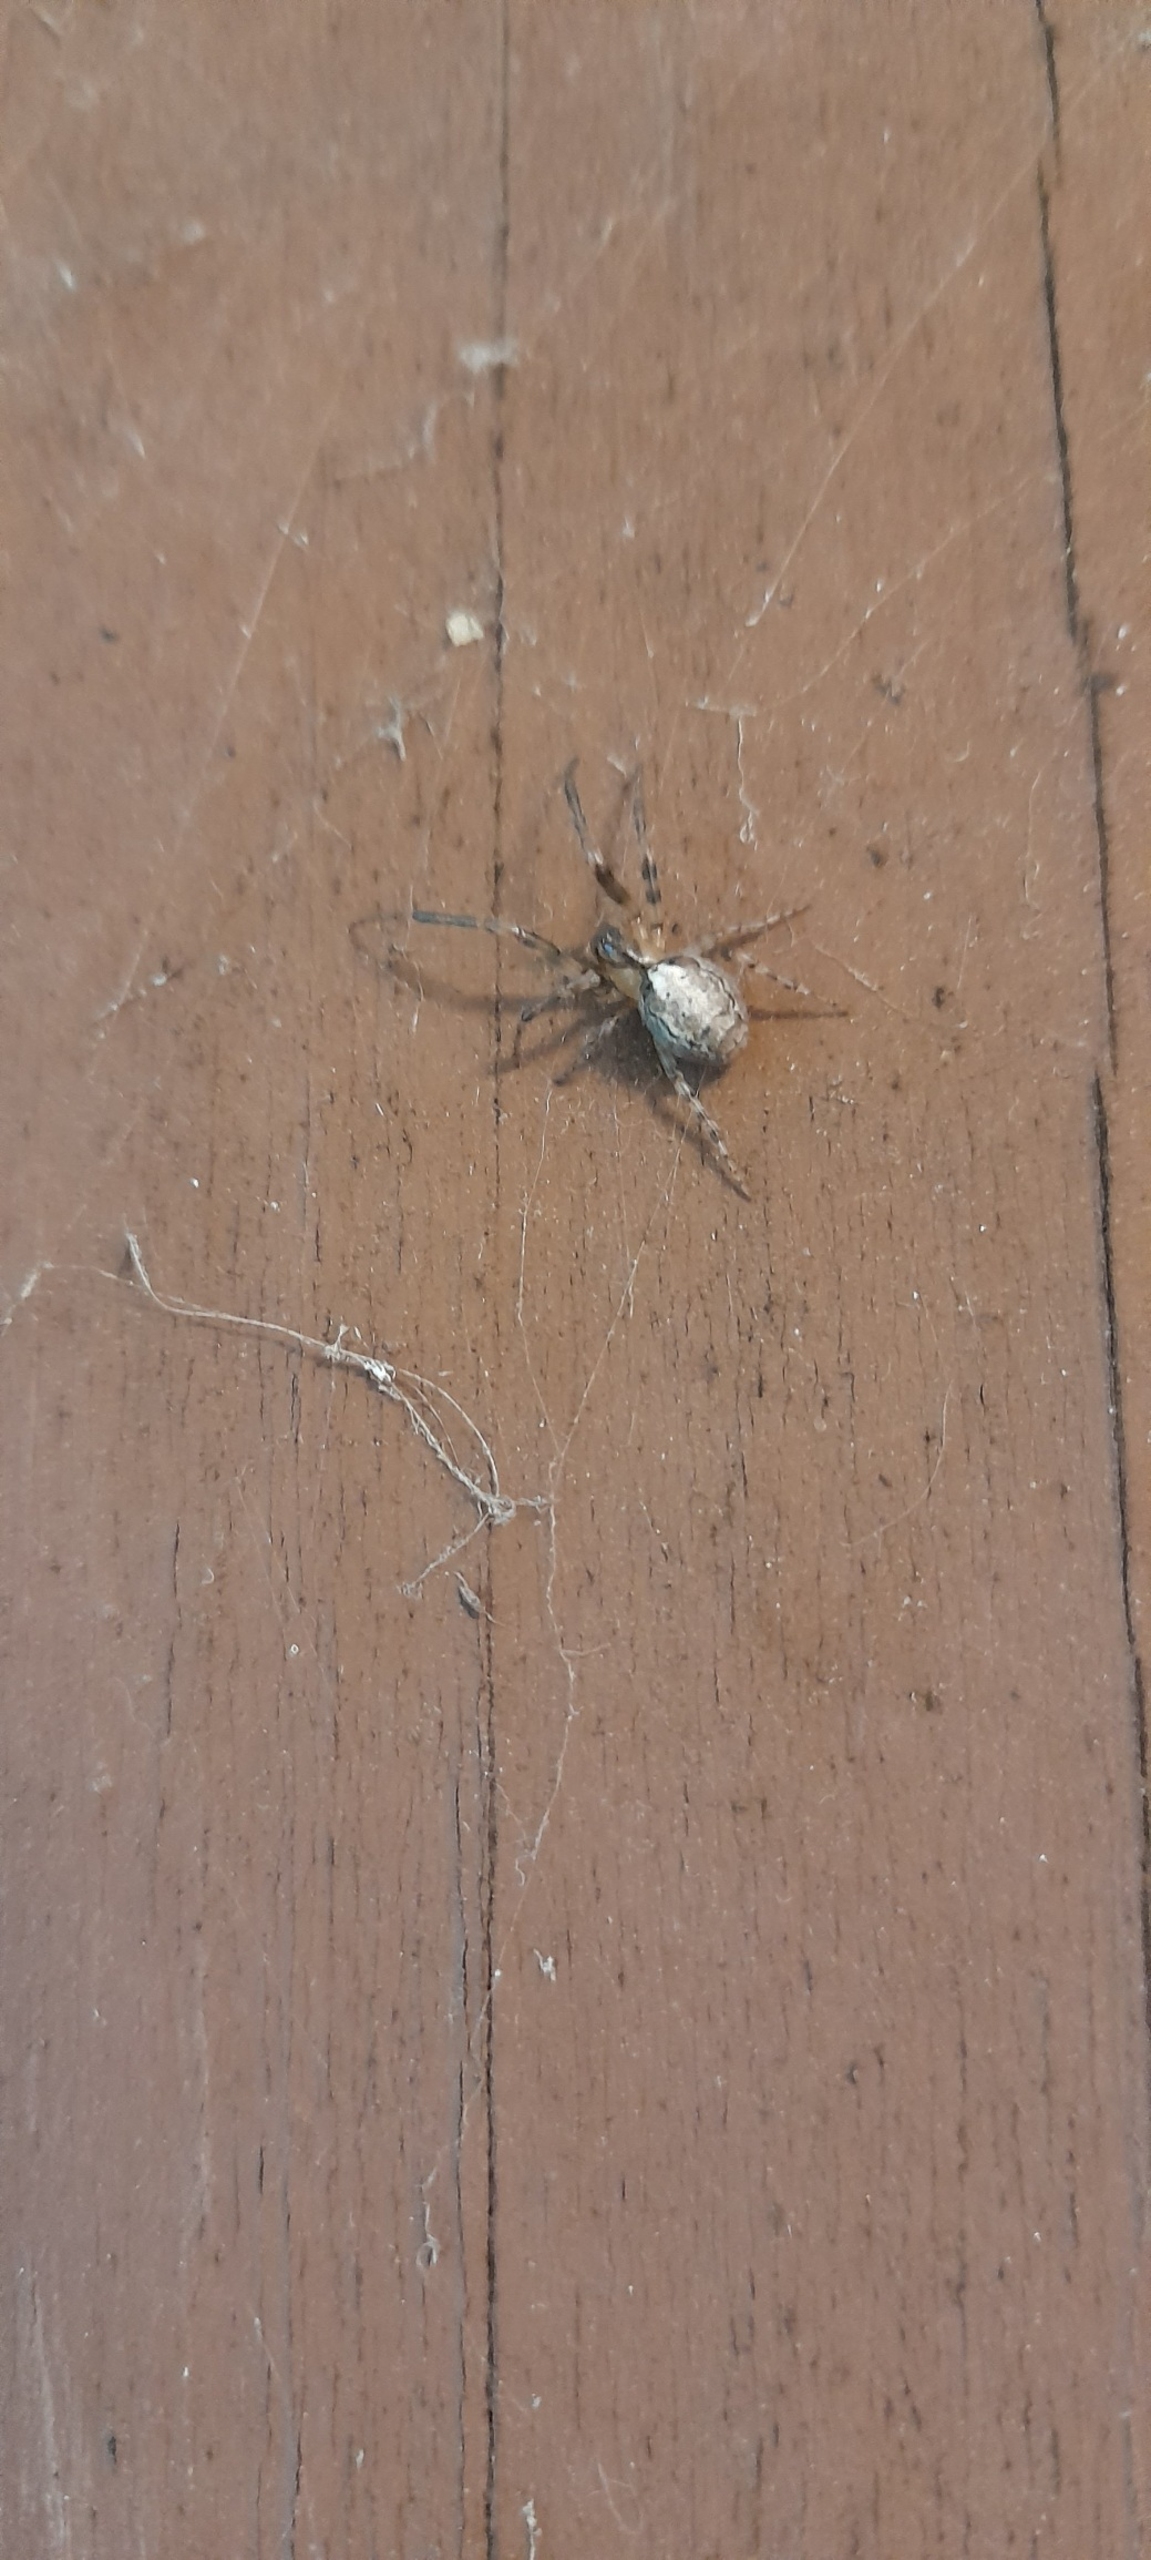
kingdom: Animalia
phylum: Arthropoda
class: Arachnida
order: Araneae
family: Araneidae
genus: Zygiella
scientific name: Zygiella x-notata
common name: Grå sektoredderkop
